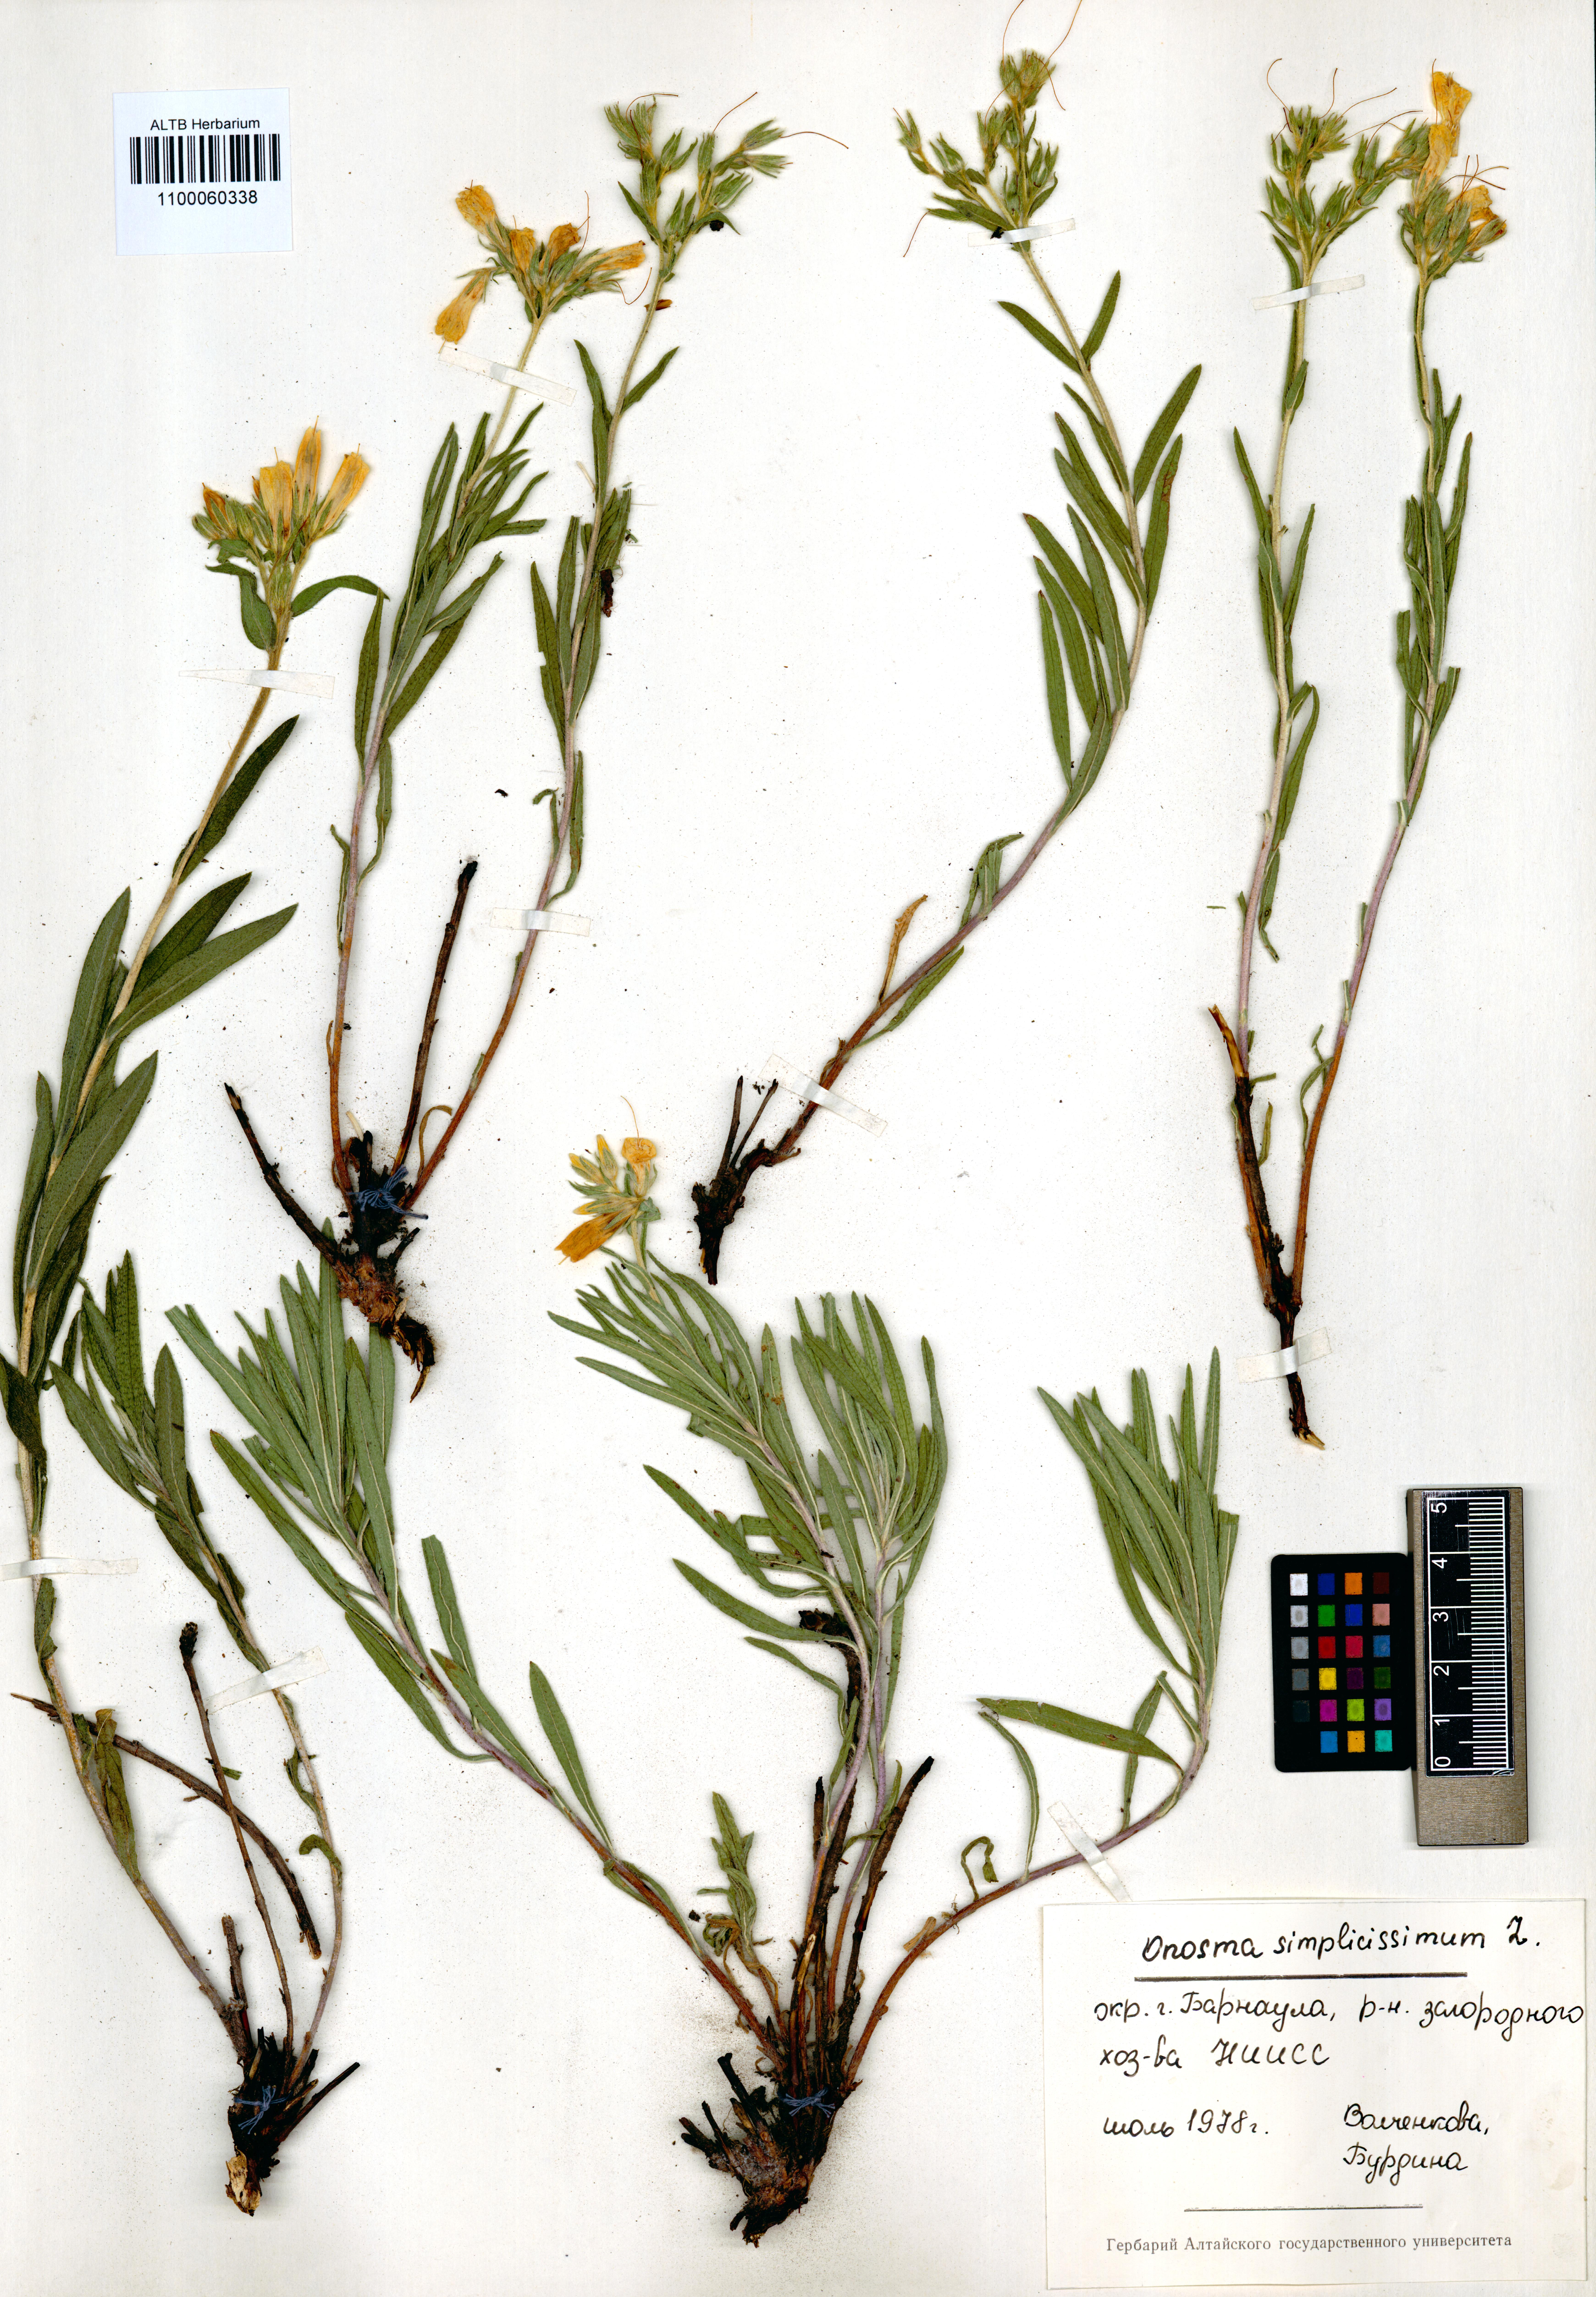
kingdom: Plantae
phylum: Tracheophyta
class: Magnoliopsida
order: Boraginales
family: Boraginaceae
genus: Onosma
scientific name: Onosma simplicissima
